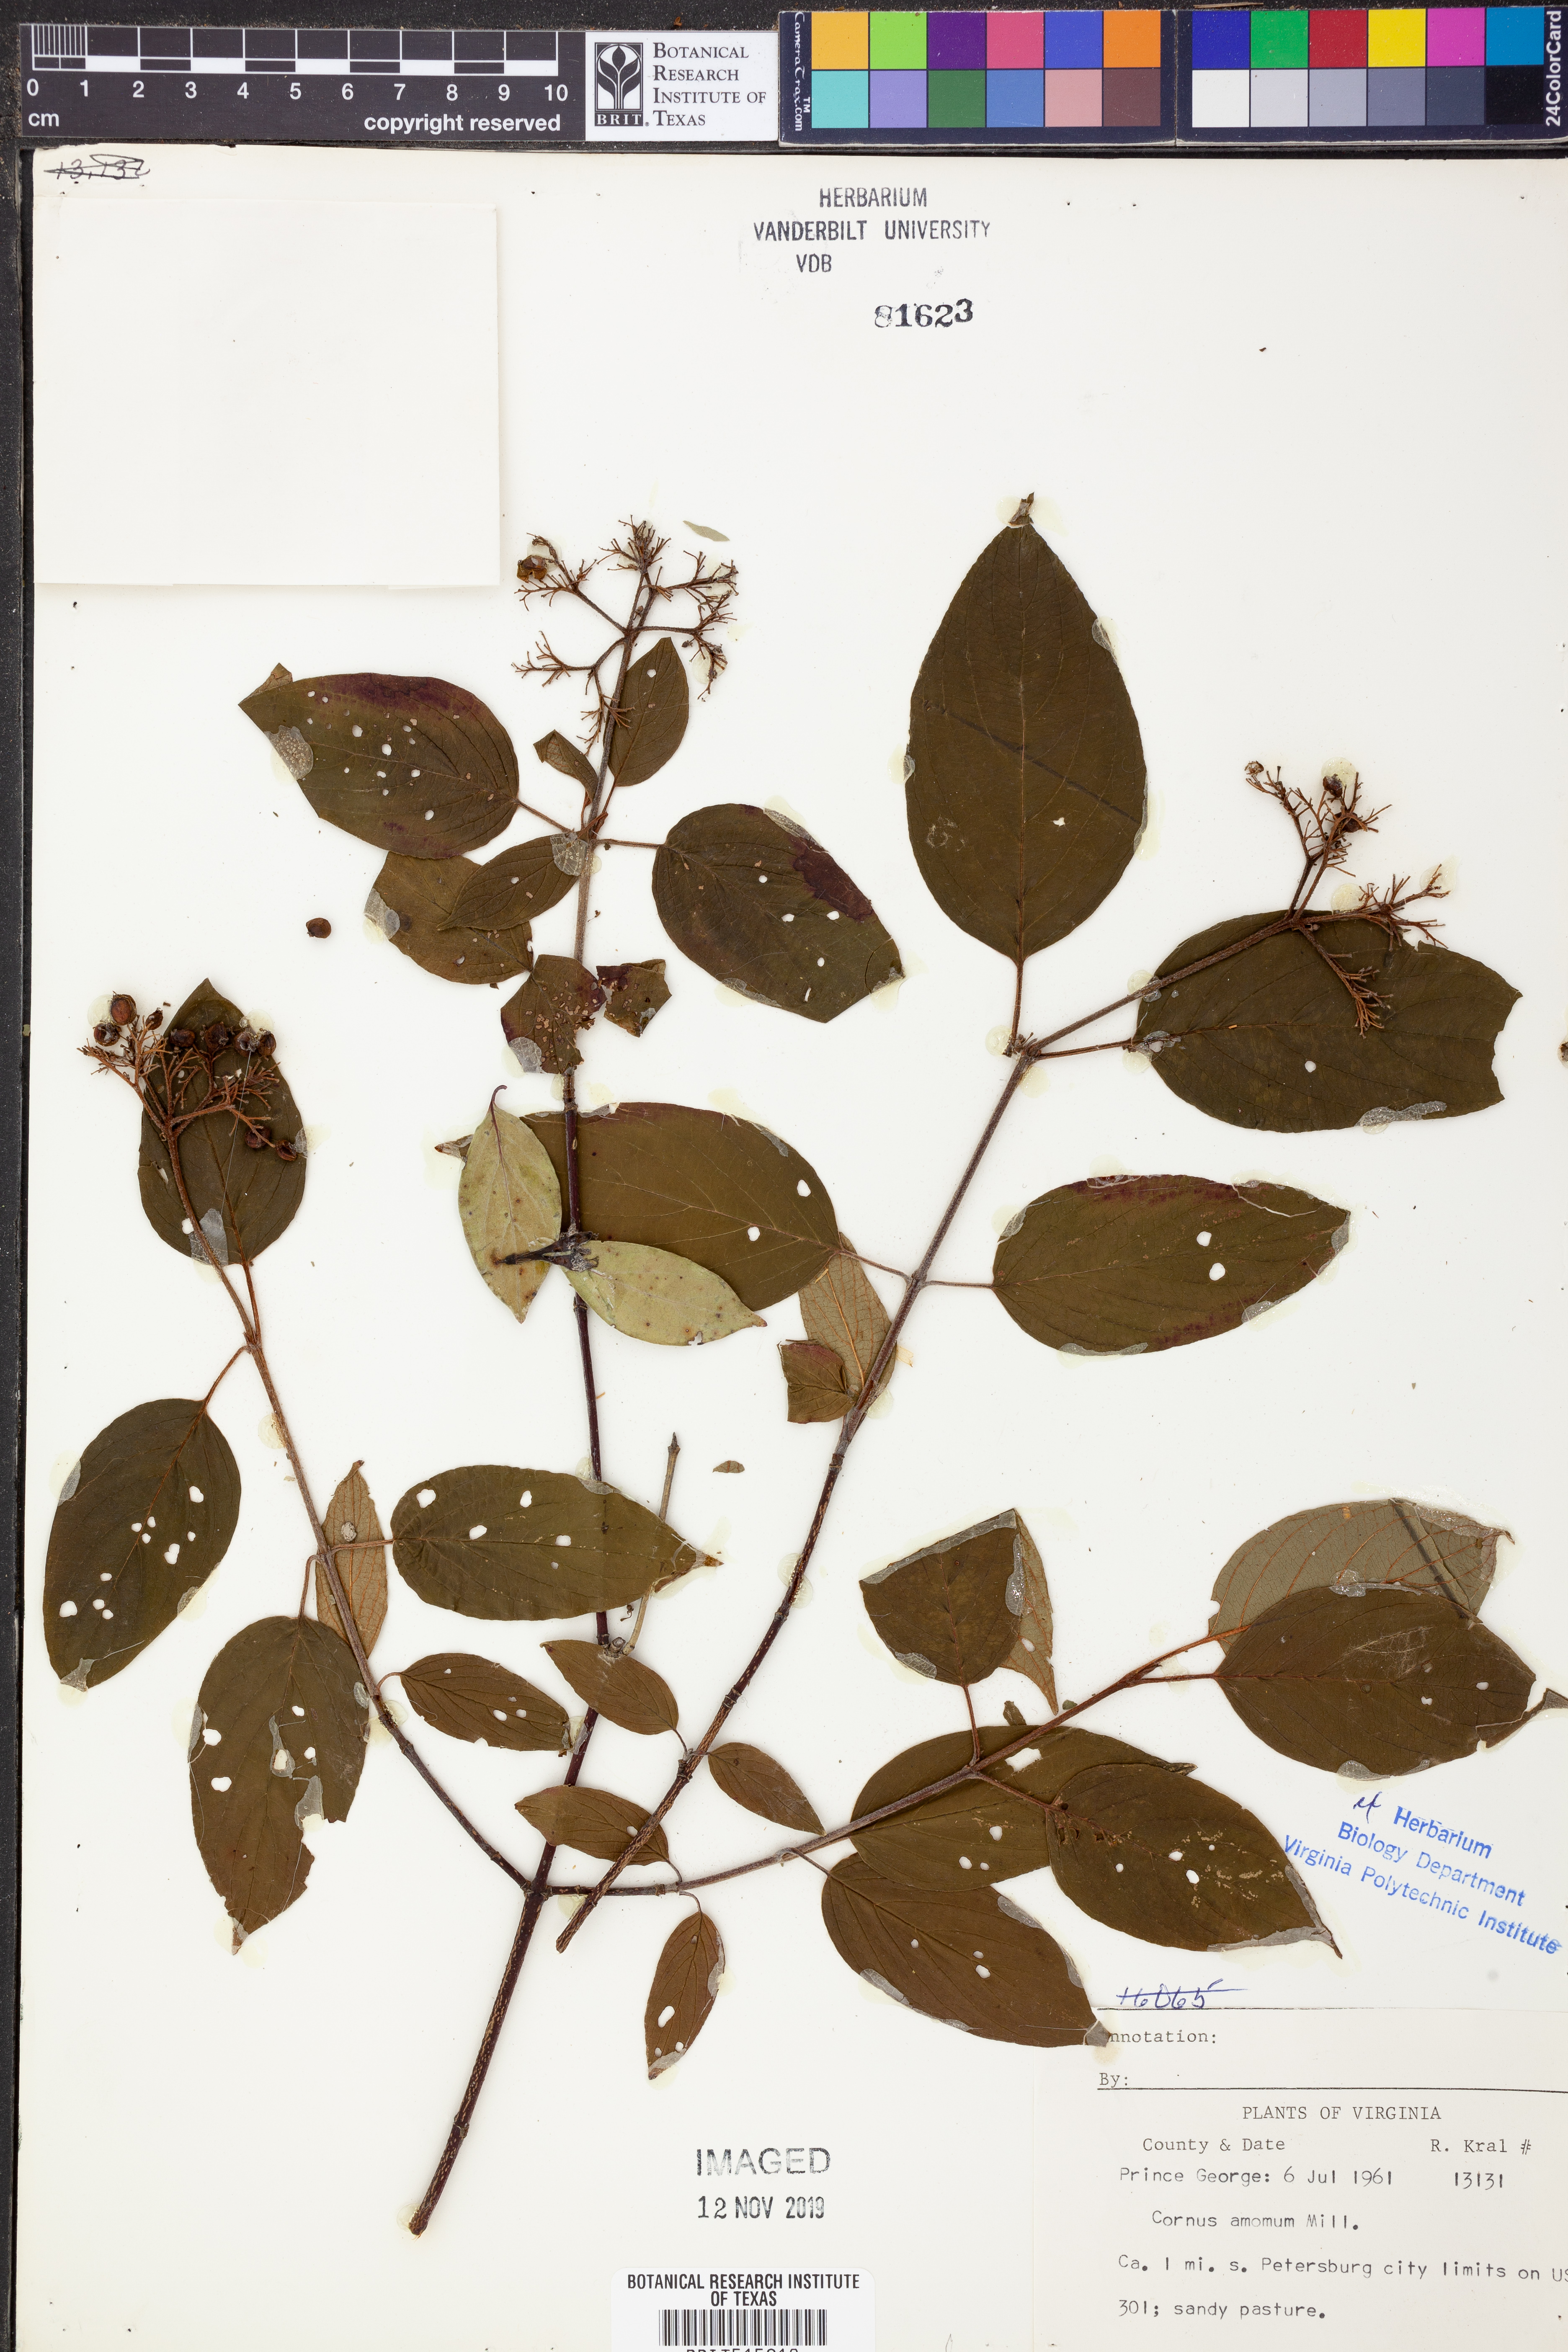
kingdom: Plantae
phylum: Tracheophyta
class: Magnoliopsida
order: Cornales
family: Cornaceae
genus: Cornus
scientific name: Cornus amomum
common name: Silky dogwood
